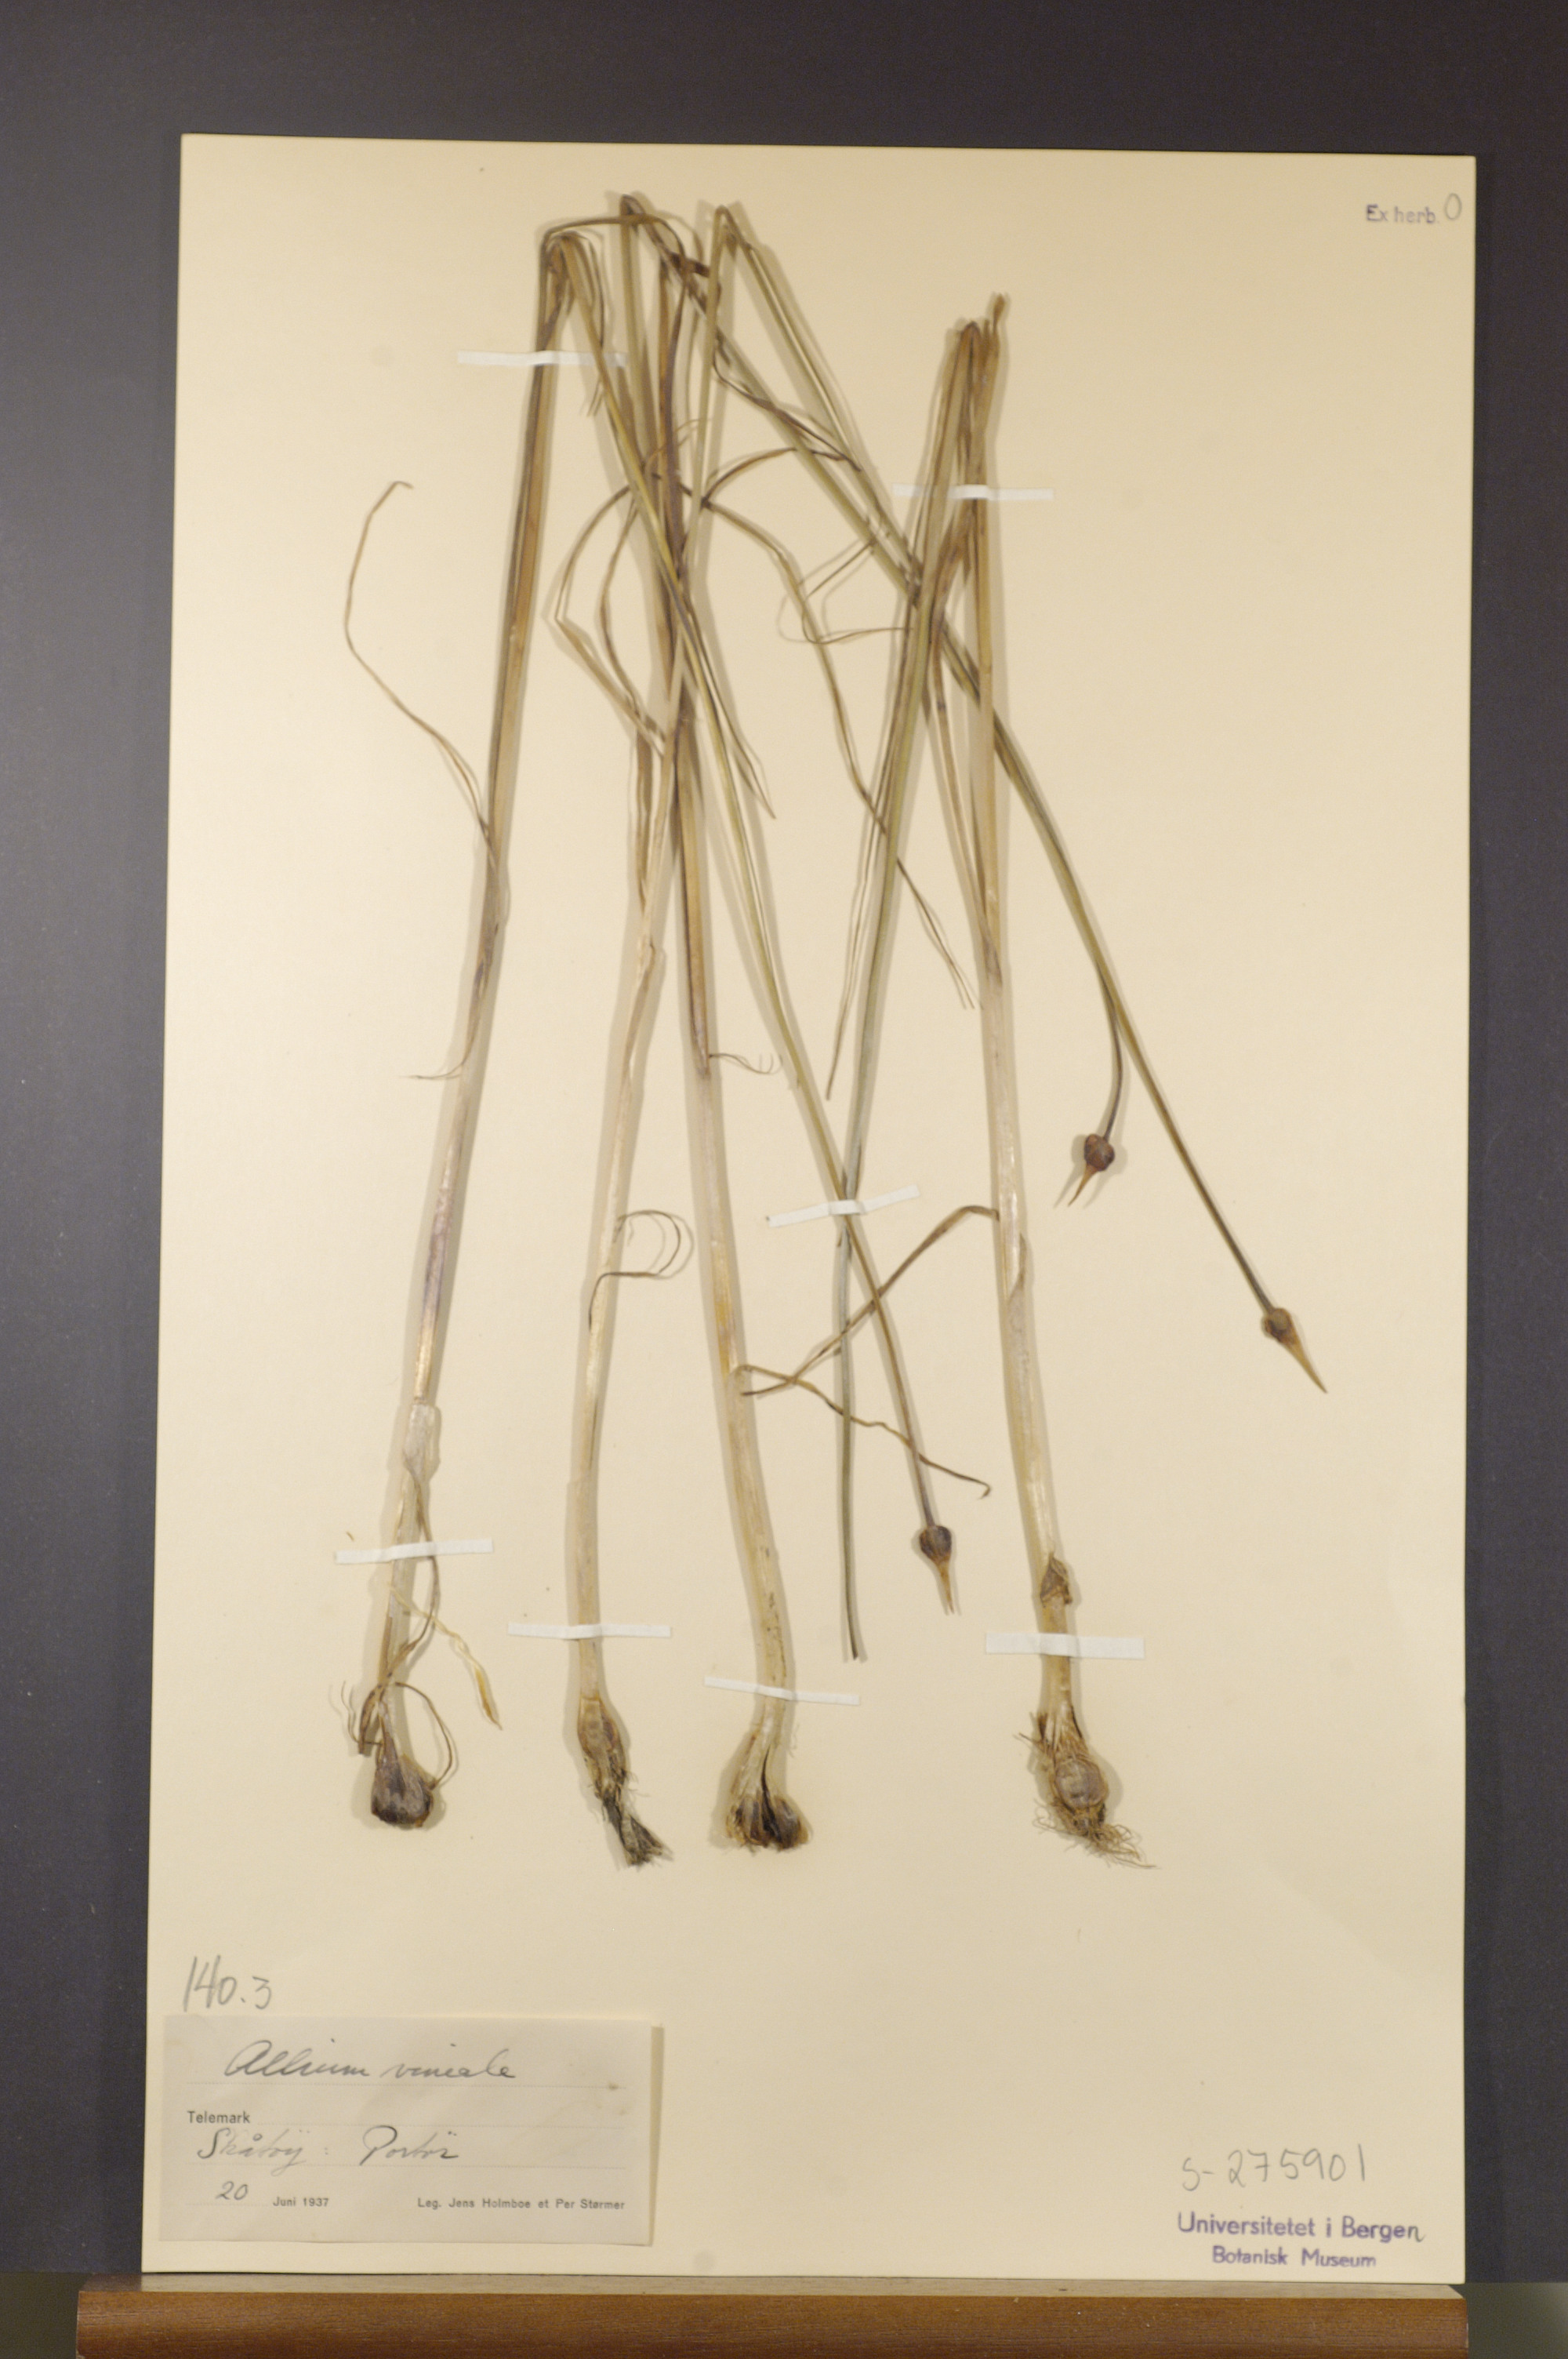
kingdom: Plantae
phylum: Tracheophyta
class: Liliopsida
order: Asparagales
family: Amaryllidaceae
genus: Allium
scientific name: Allium vineale
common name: Crow garlic
